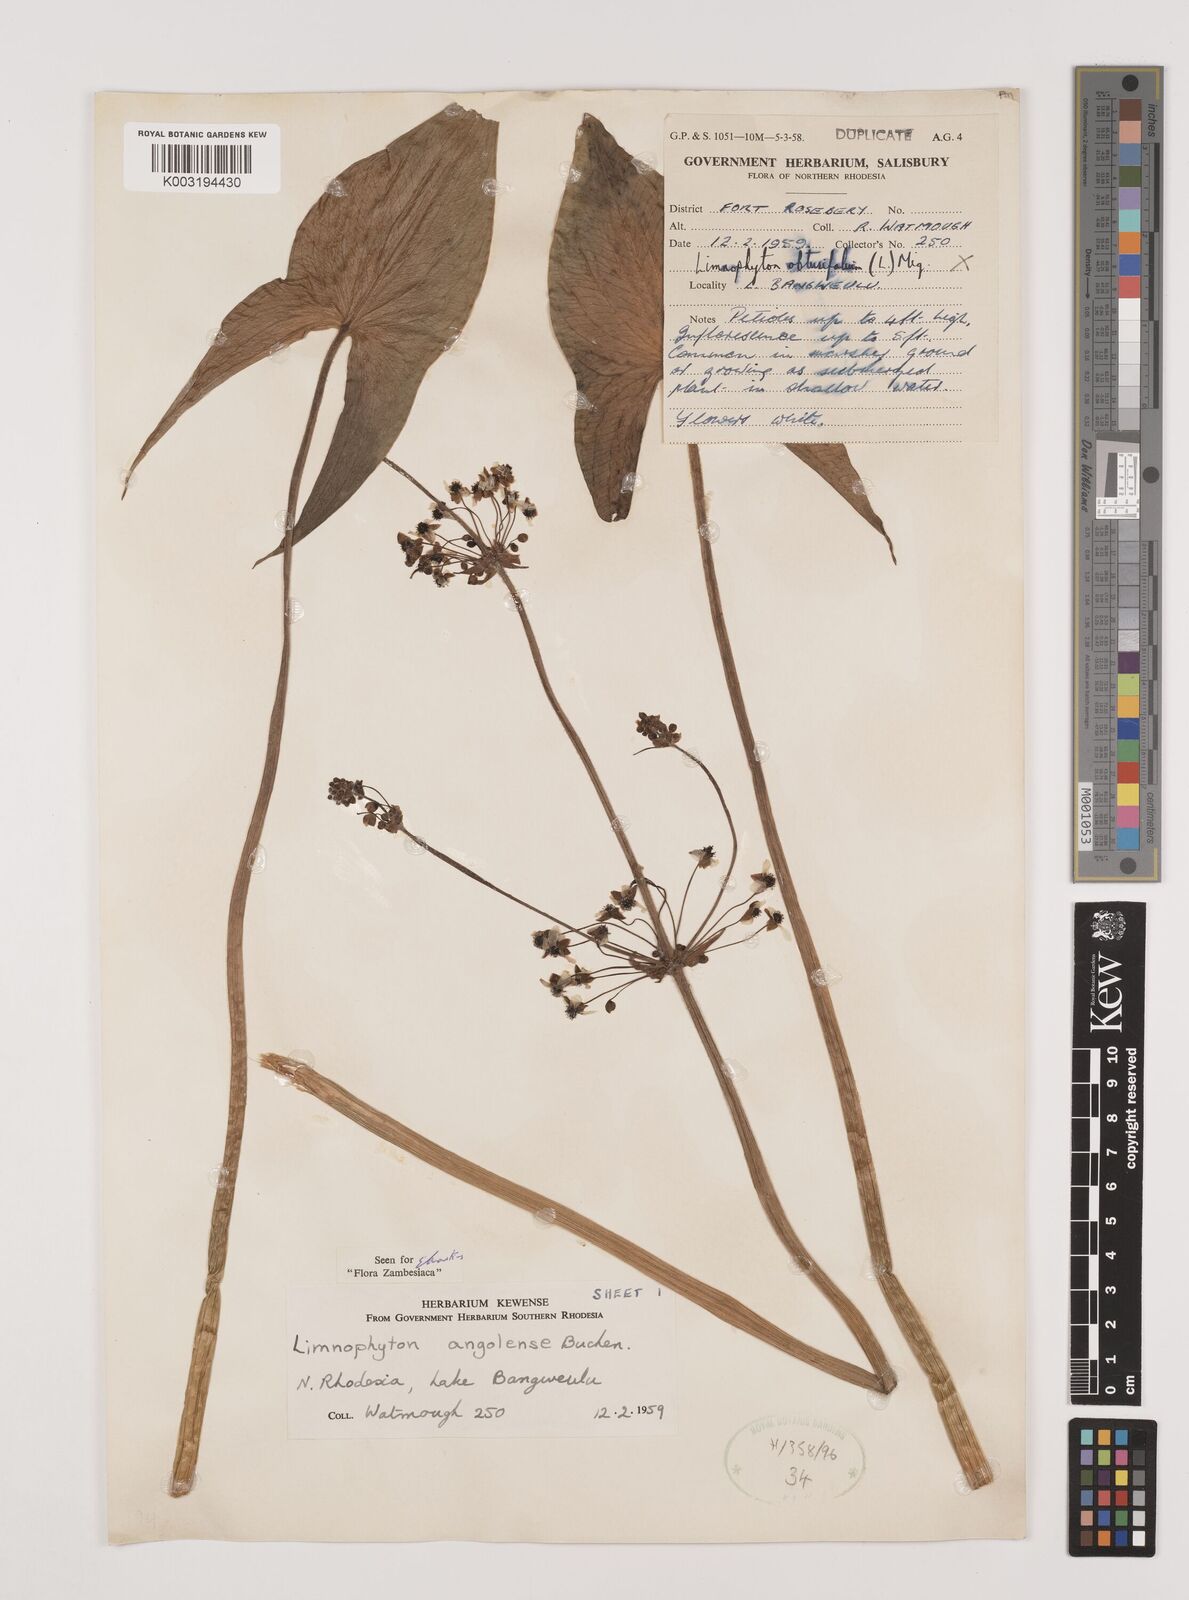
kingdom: Plantae
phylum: Tracheophyta
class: Liliopsida
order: Alismatales
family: Alismataceae
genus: Limnophyton
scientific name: Limnophyton
